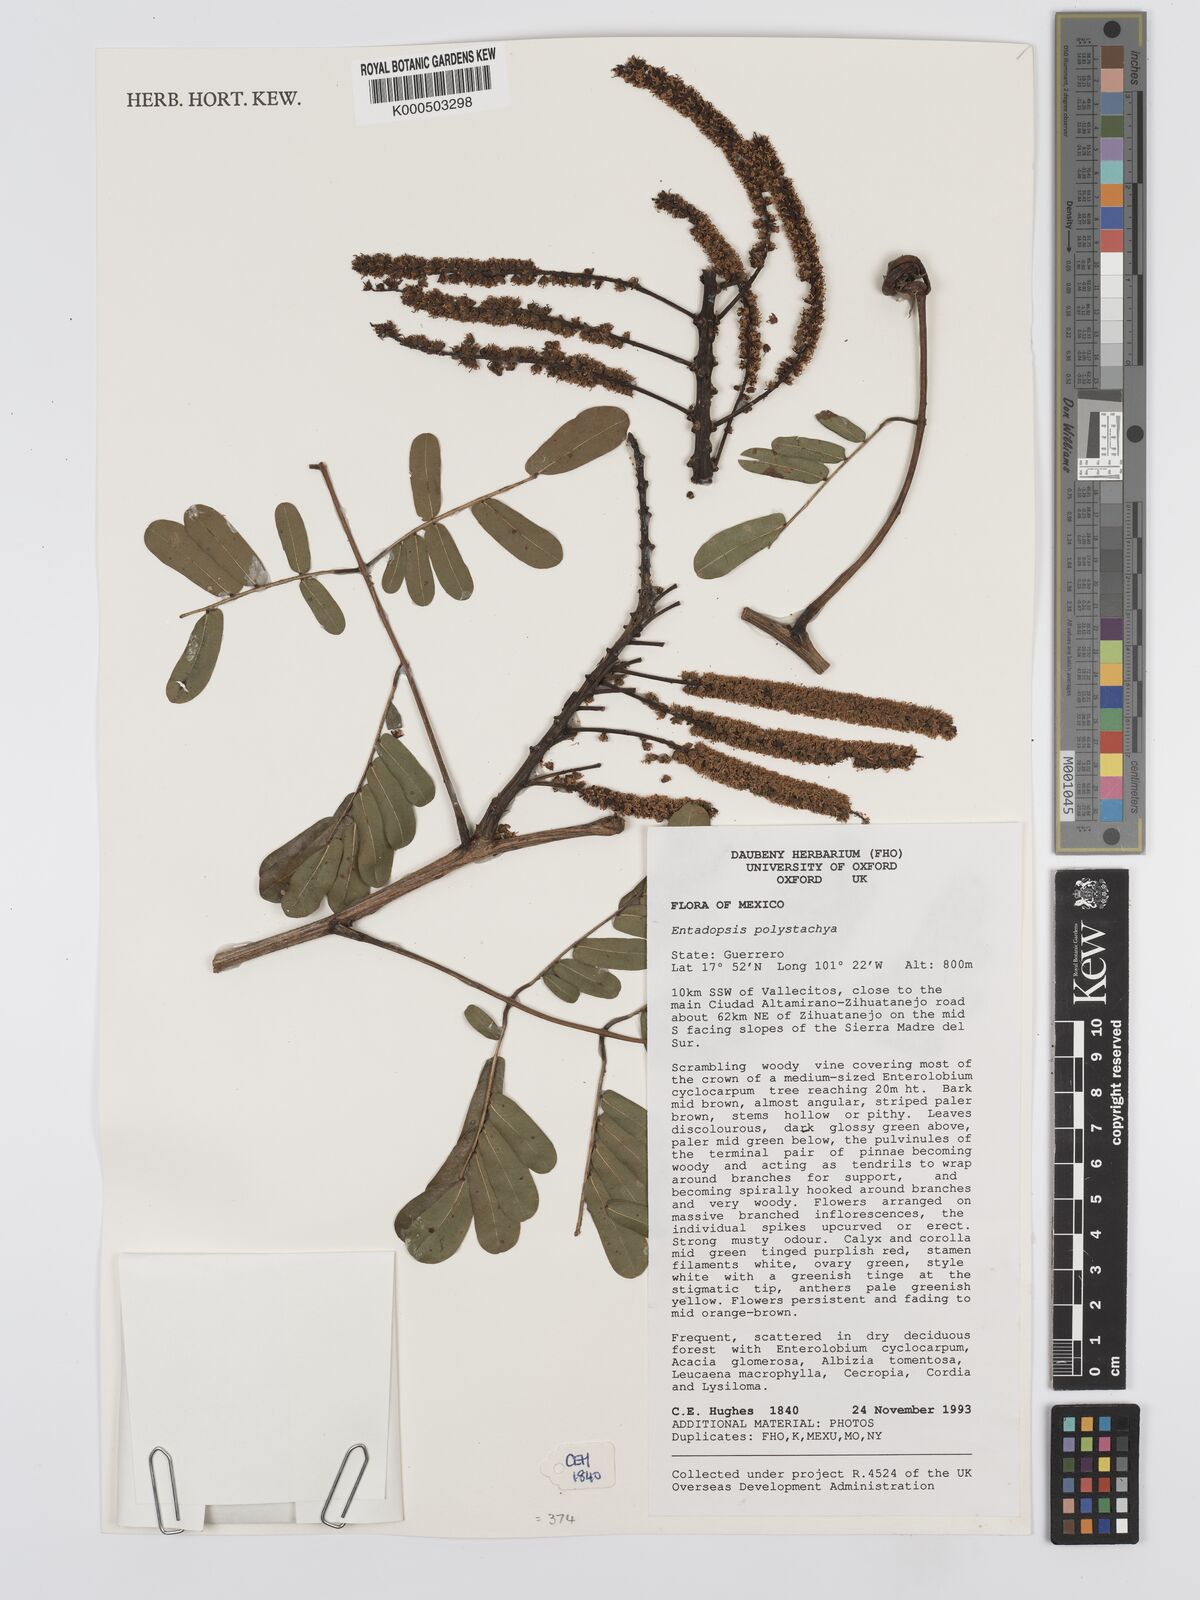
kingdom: Plantae
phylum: Tracheophyta
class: Magnoliopsida
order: Fabales
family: Fabaceae
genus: Entada
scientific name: Entada polystachya
